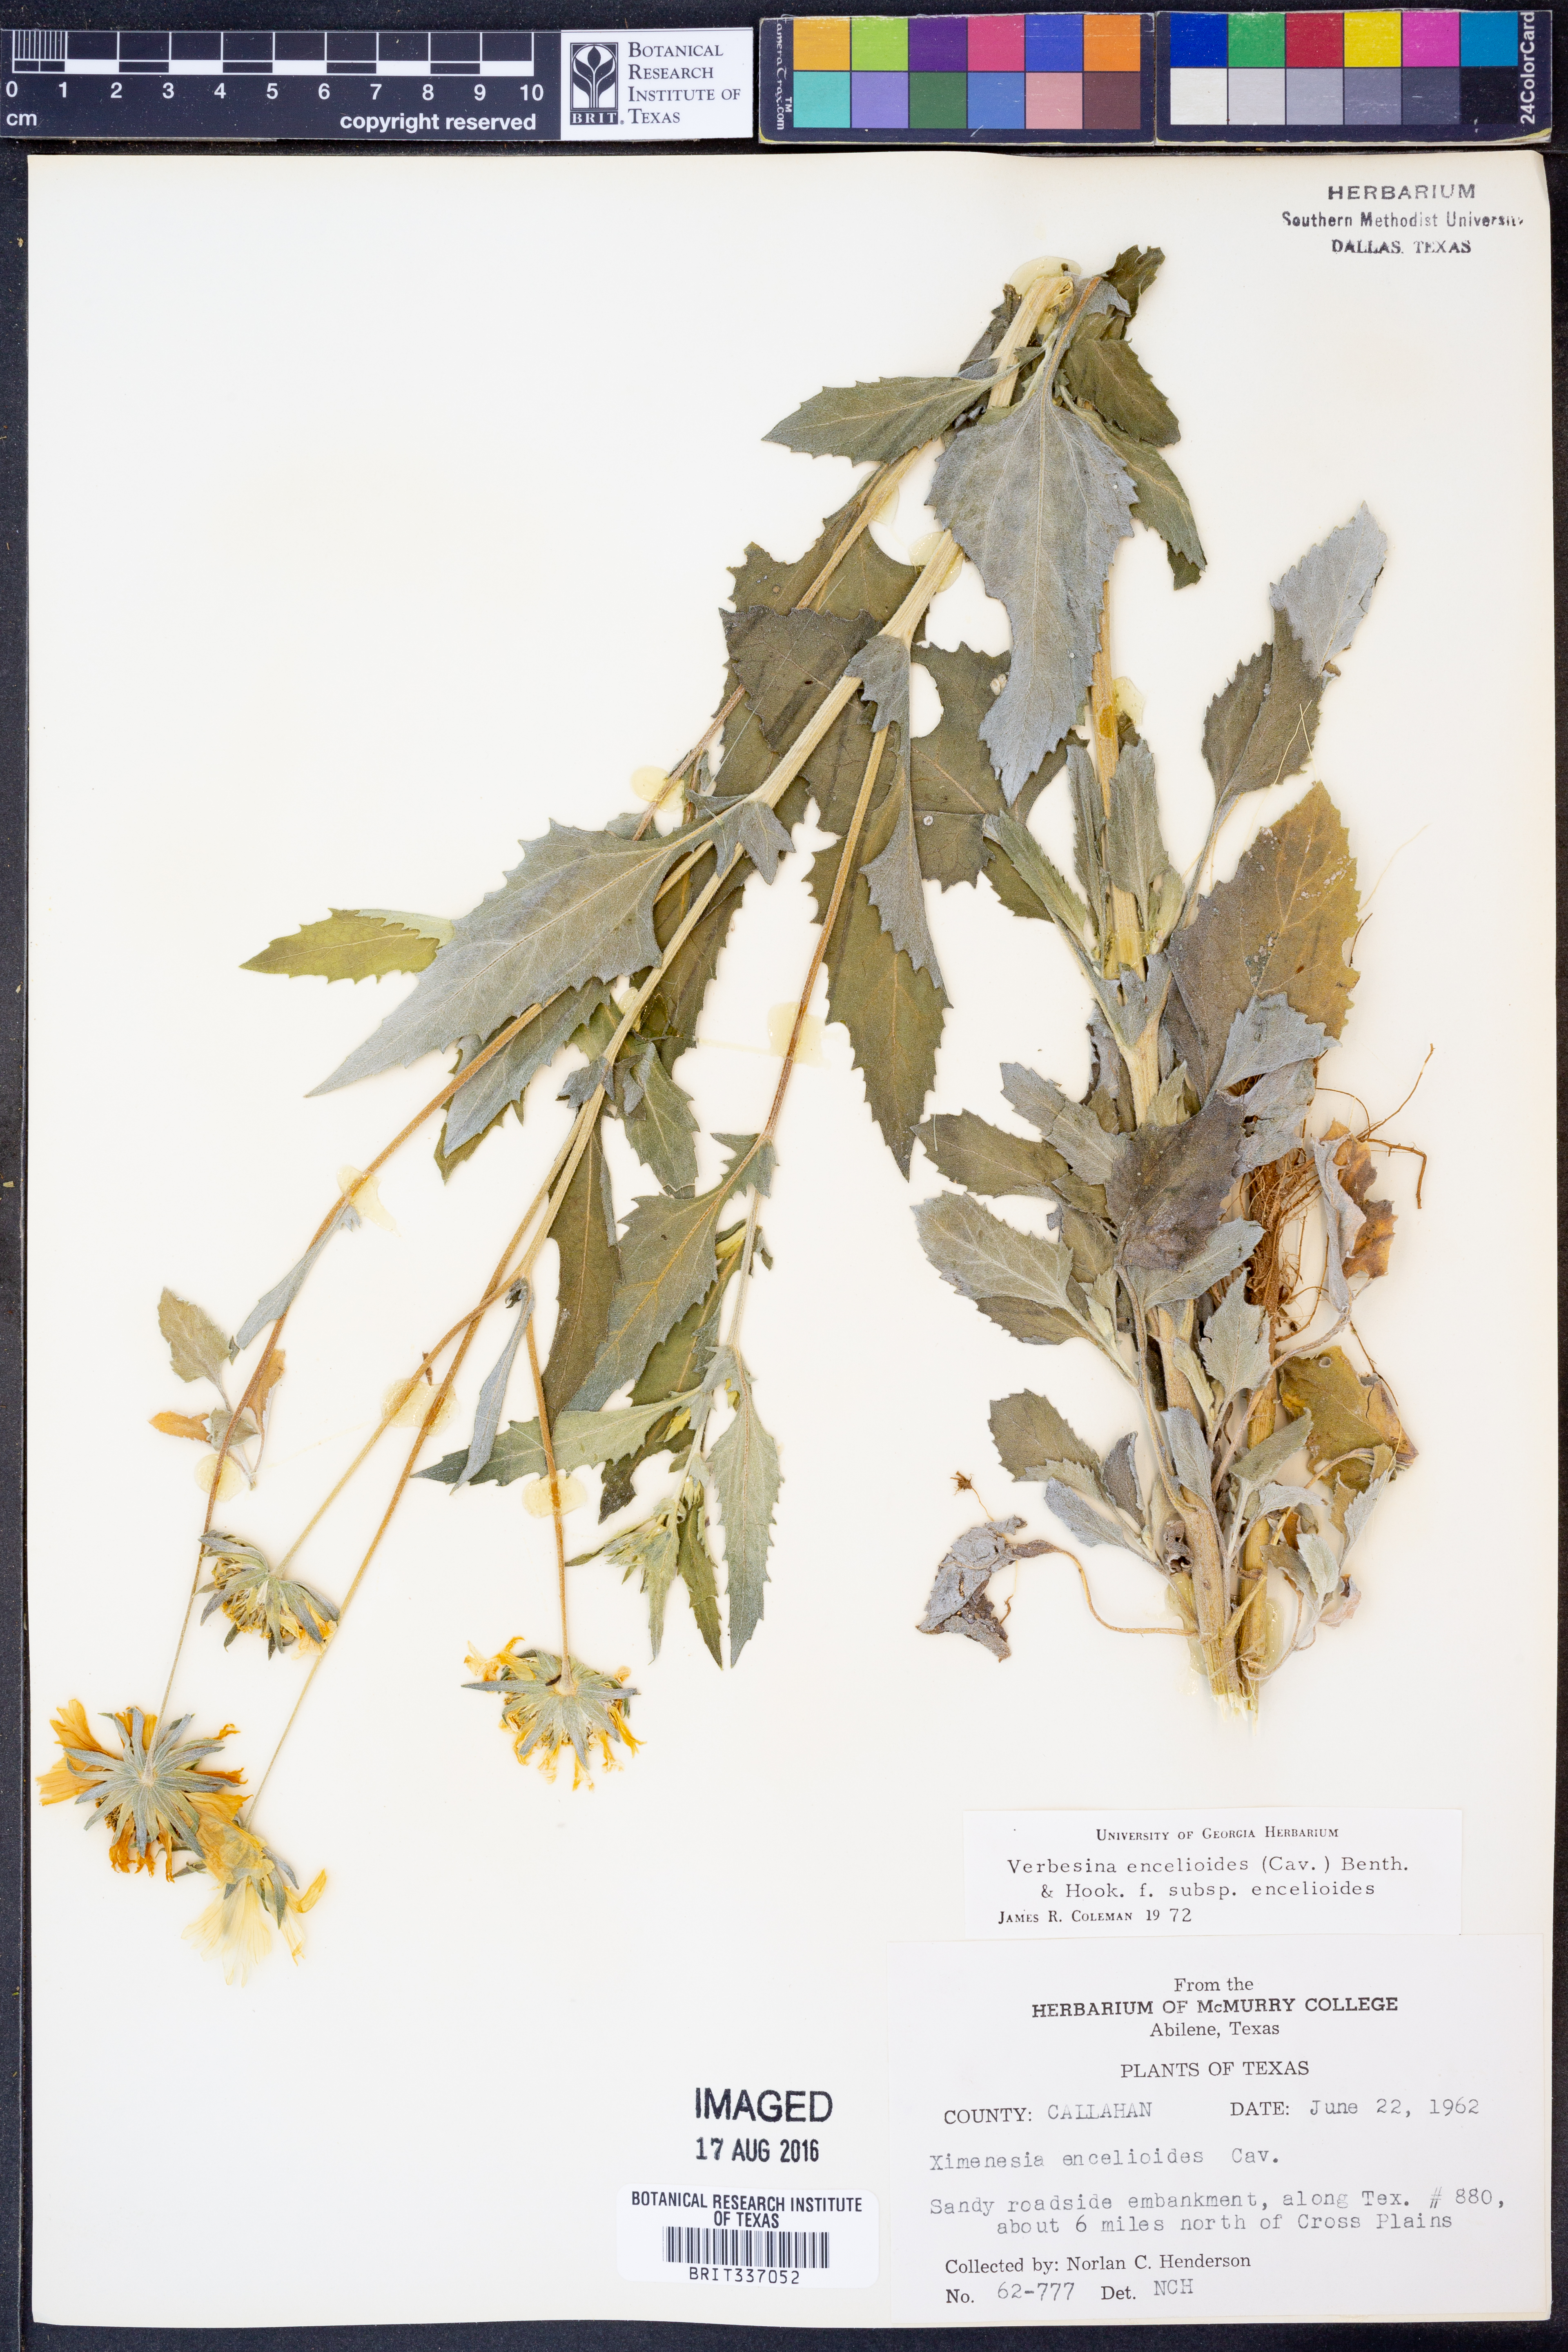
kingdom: Plantae
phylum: Tracheophyta
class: Magnoliopsida
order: Asterales
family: Asteraceae
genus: Verbesina
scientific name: Verbesina encelioides
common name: Golden crownbeard
